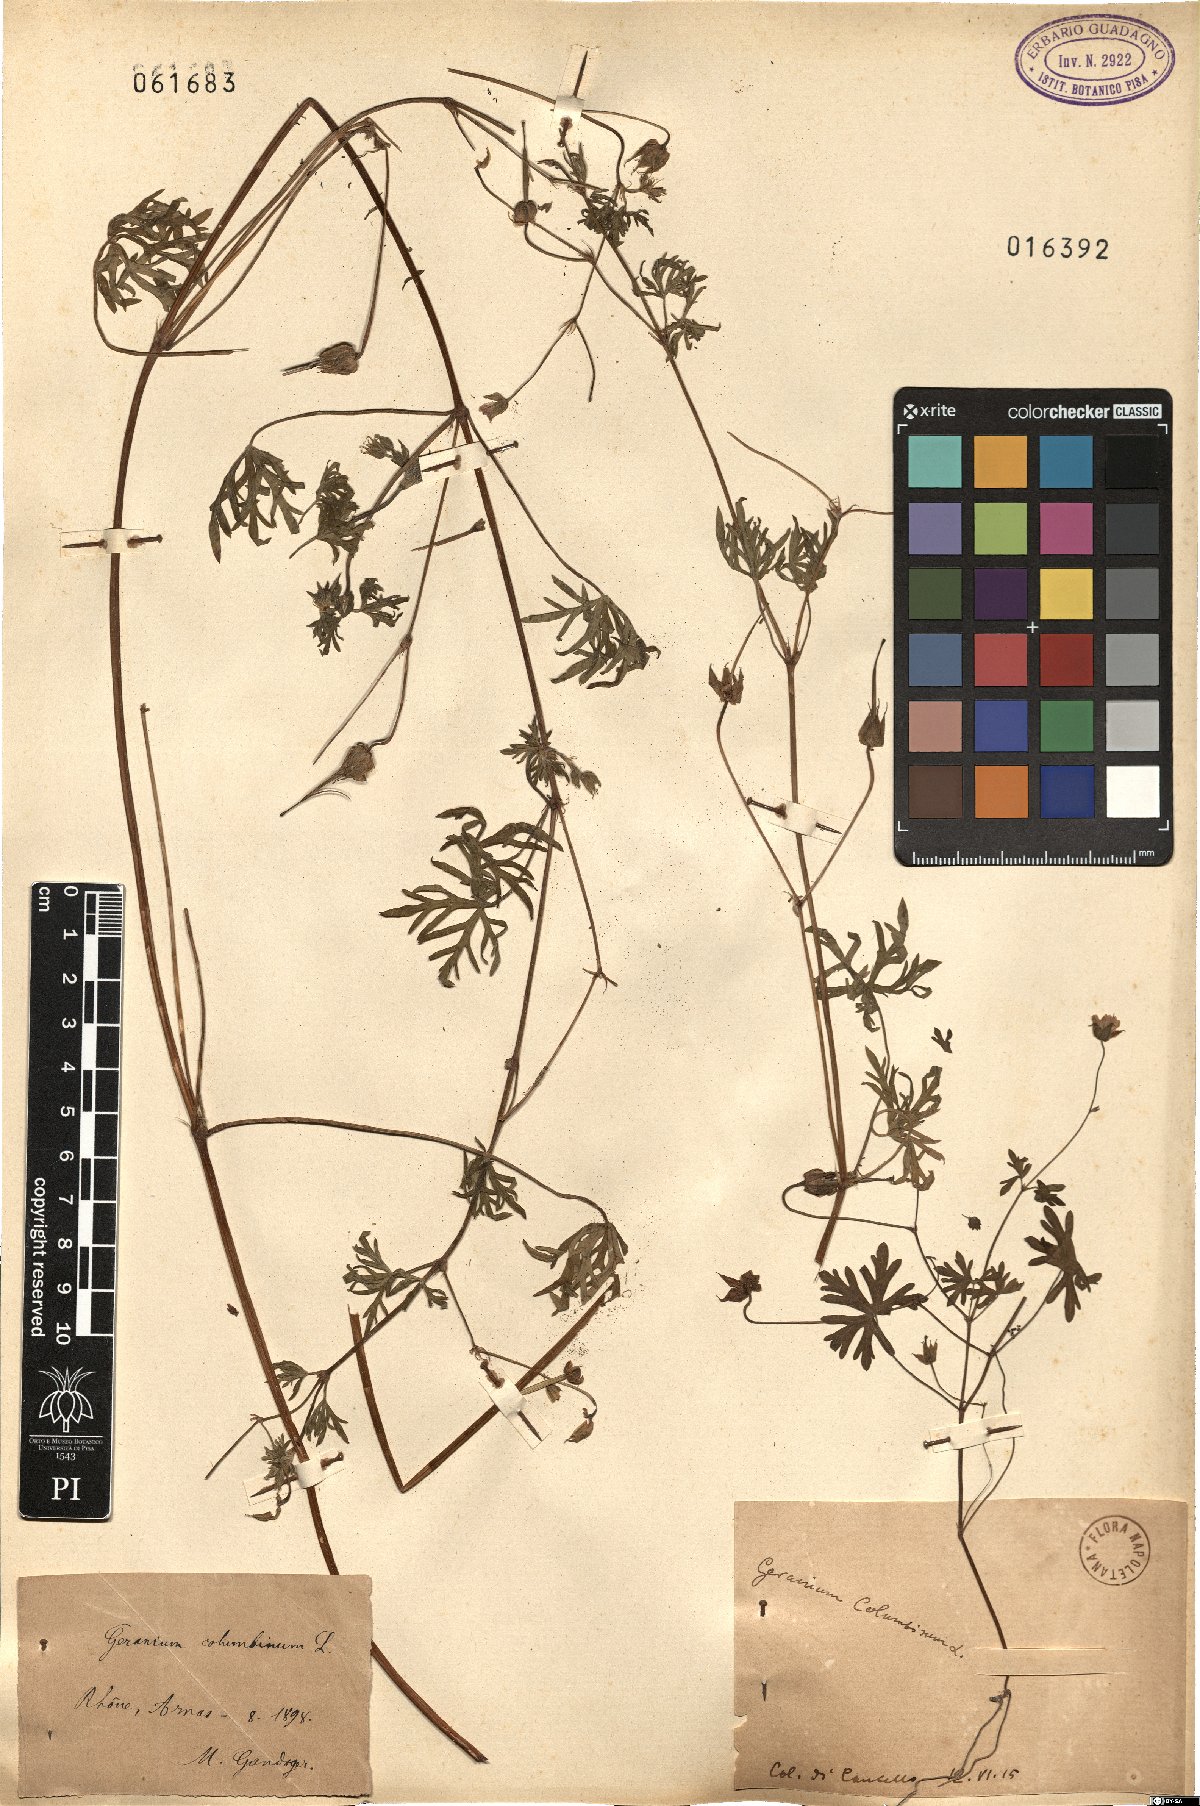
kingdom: Plantae
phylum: Tracheophyta
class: Magnoliopsida
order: Geraniales
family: Geraniaceae
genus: Geranium
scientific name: Geranium columbinum
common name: Long-stalked crane's-bill
